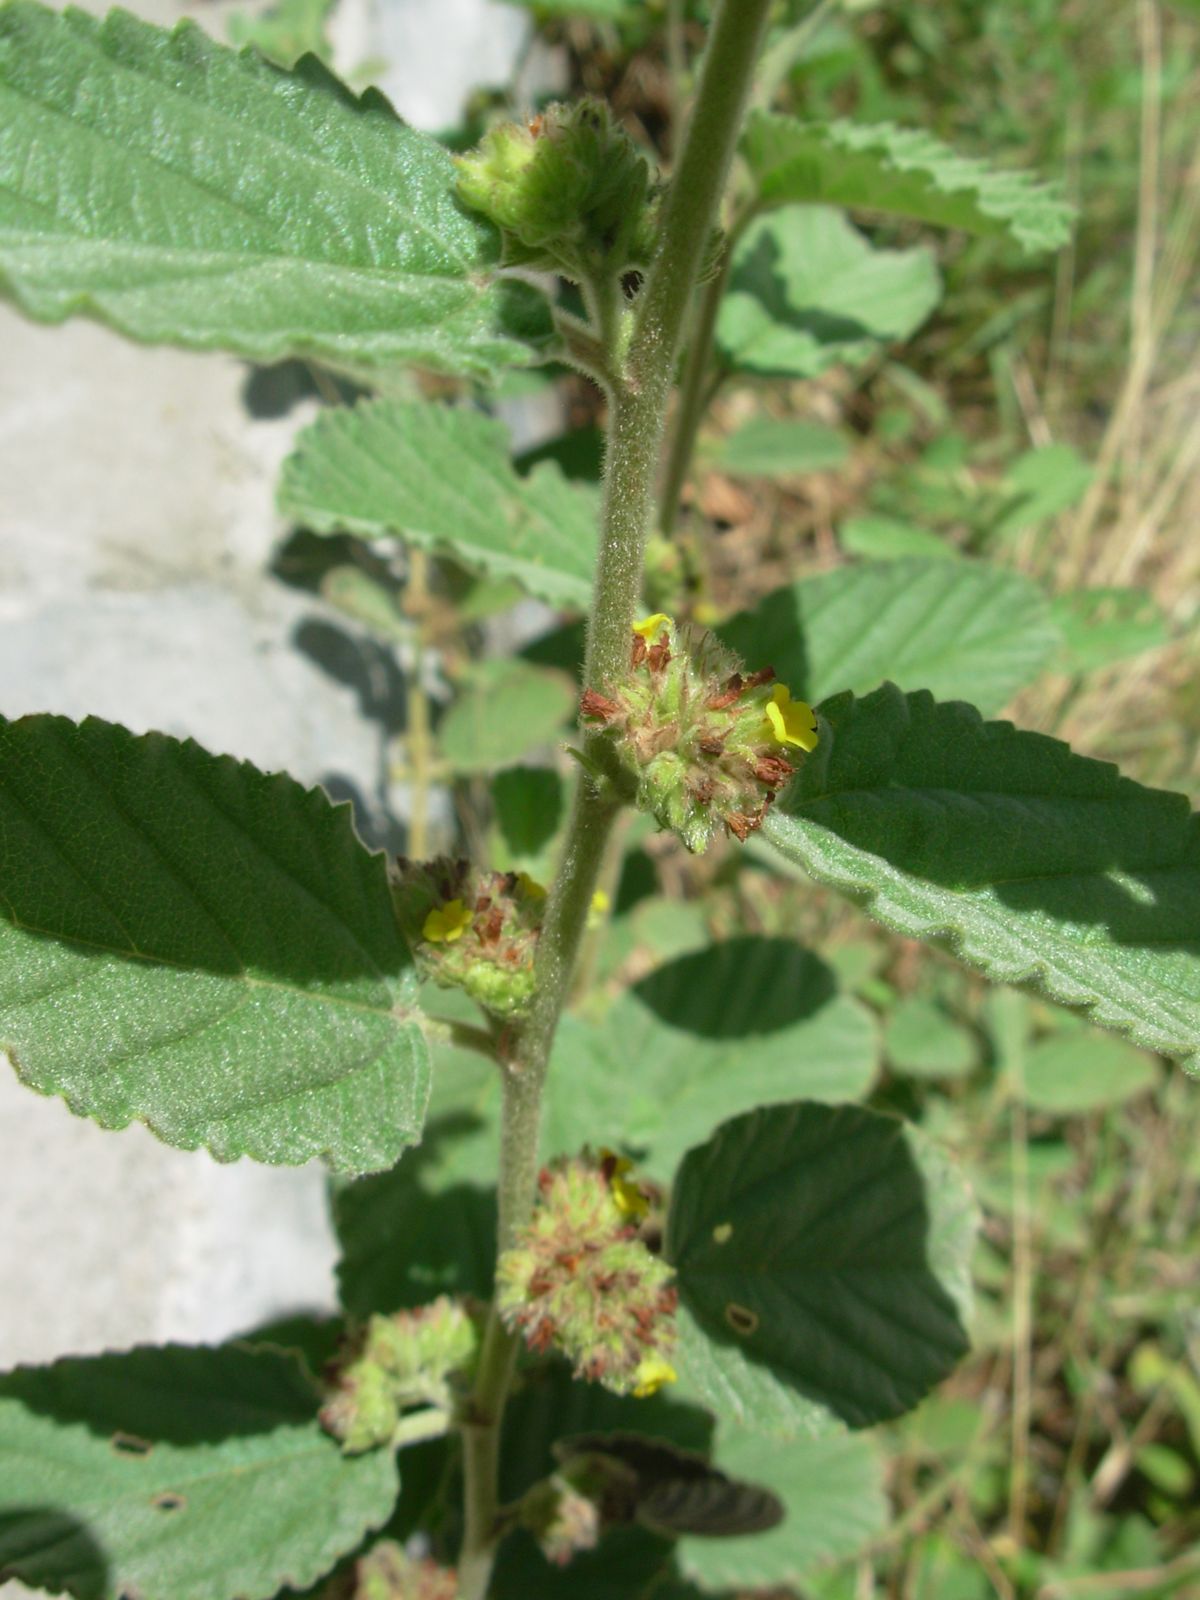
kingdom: Plantae
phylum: Tracheophyta
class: Magnoliopsida
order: Malvales
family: Malvaceae
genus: Waltheria
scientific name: Waltheria indica
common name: Leather-coat
